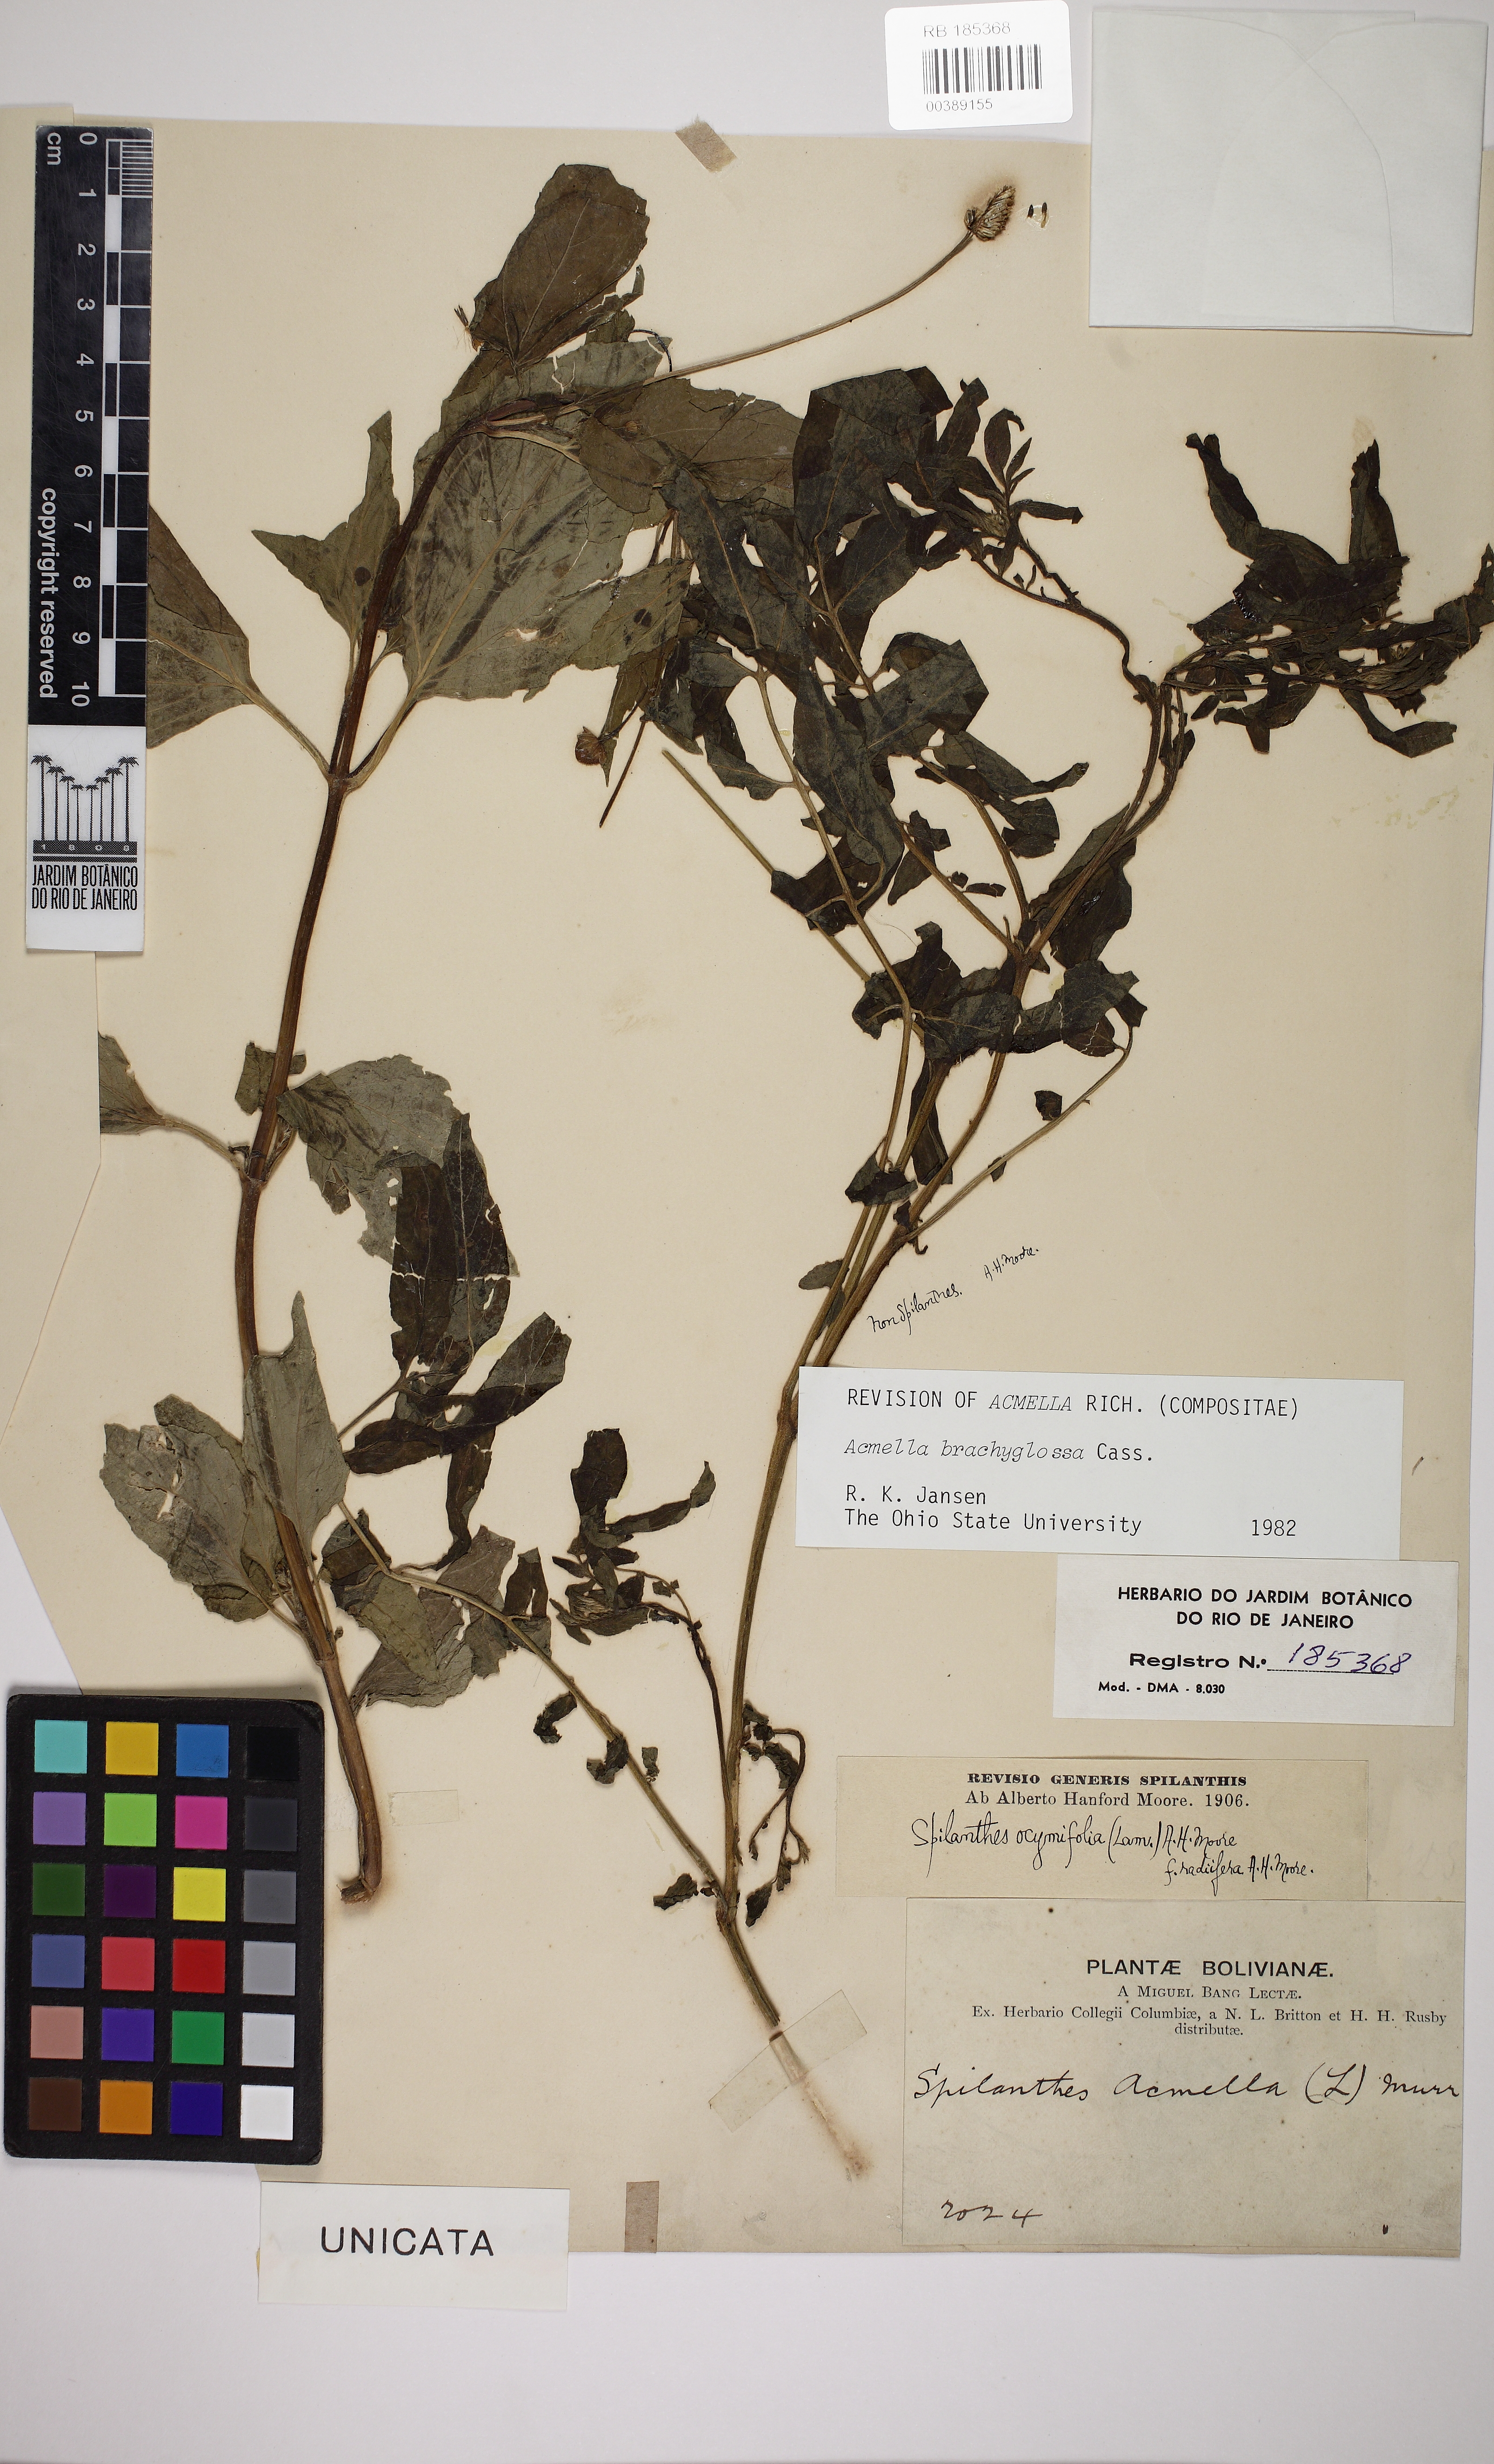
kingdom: Plantae
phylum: Tracheophyta
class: Magnoliopsida
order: Asterales
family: Asteraceae
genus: Acmella
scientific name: Acmella brachyglossa
